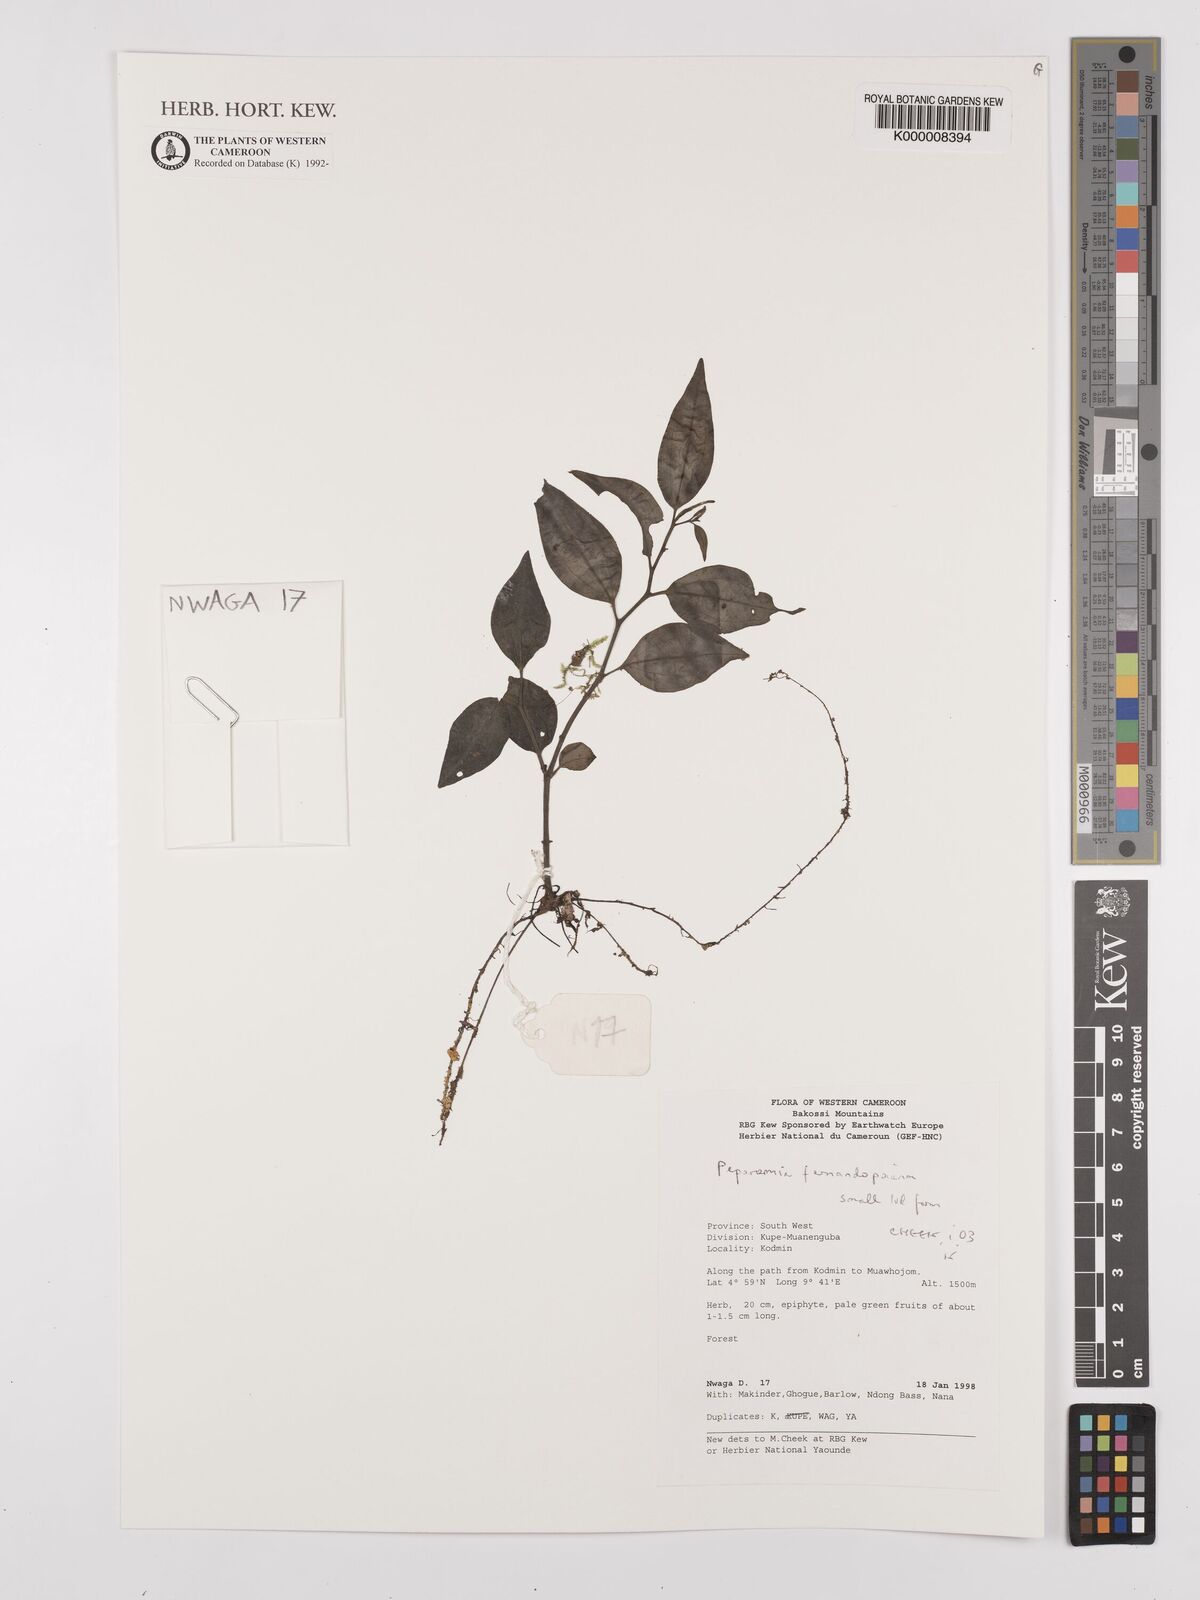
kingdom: Plantae
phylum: Tracheophyta
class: Magnoliopsida
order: Piperales
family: Piperaceae
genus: Peperomia
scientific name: Peperomia fernandopoiana
